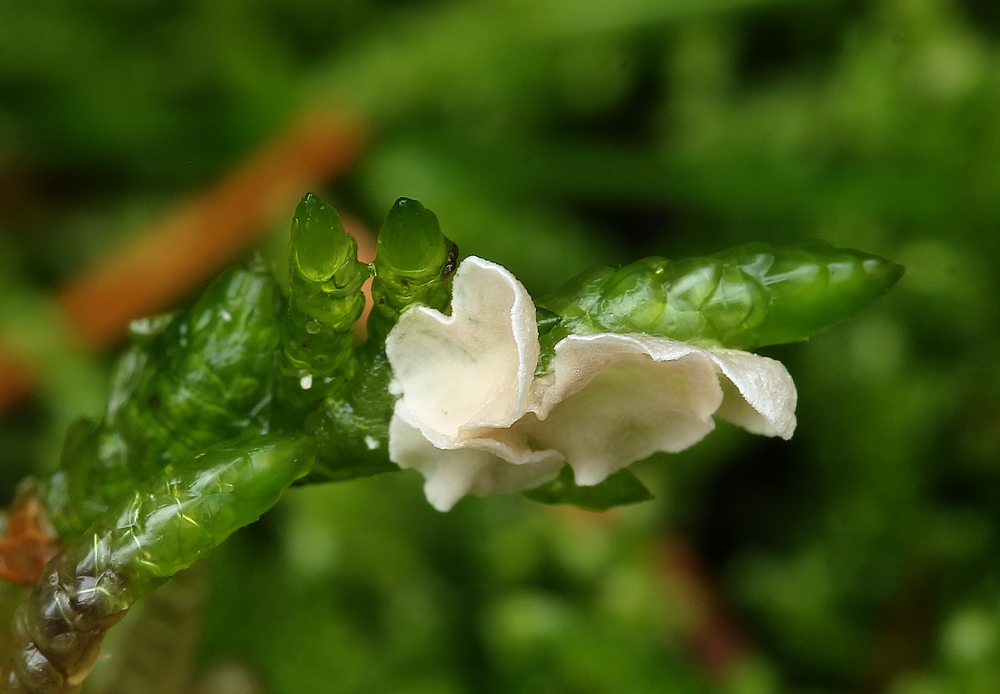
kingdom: Fungi
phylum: Basidiomycota
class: Agaricomycetes
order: Agaricales
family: Hygrophoraceae
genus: Arrhenia
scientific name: Arrhenia retiruga
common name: lille fontænehat
